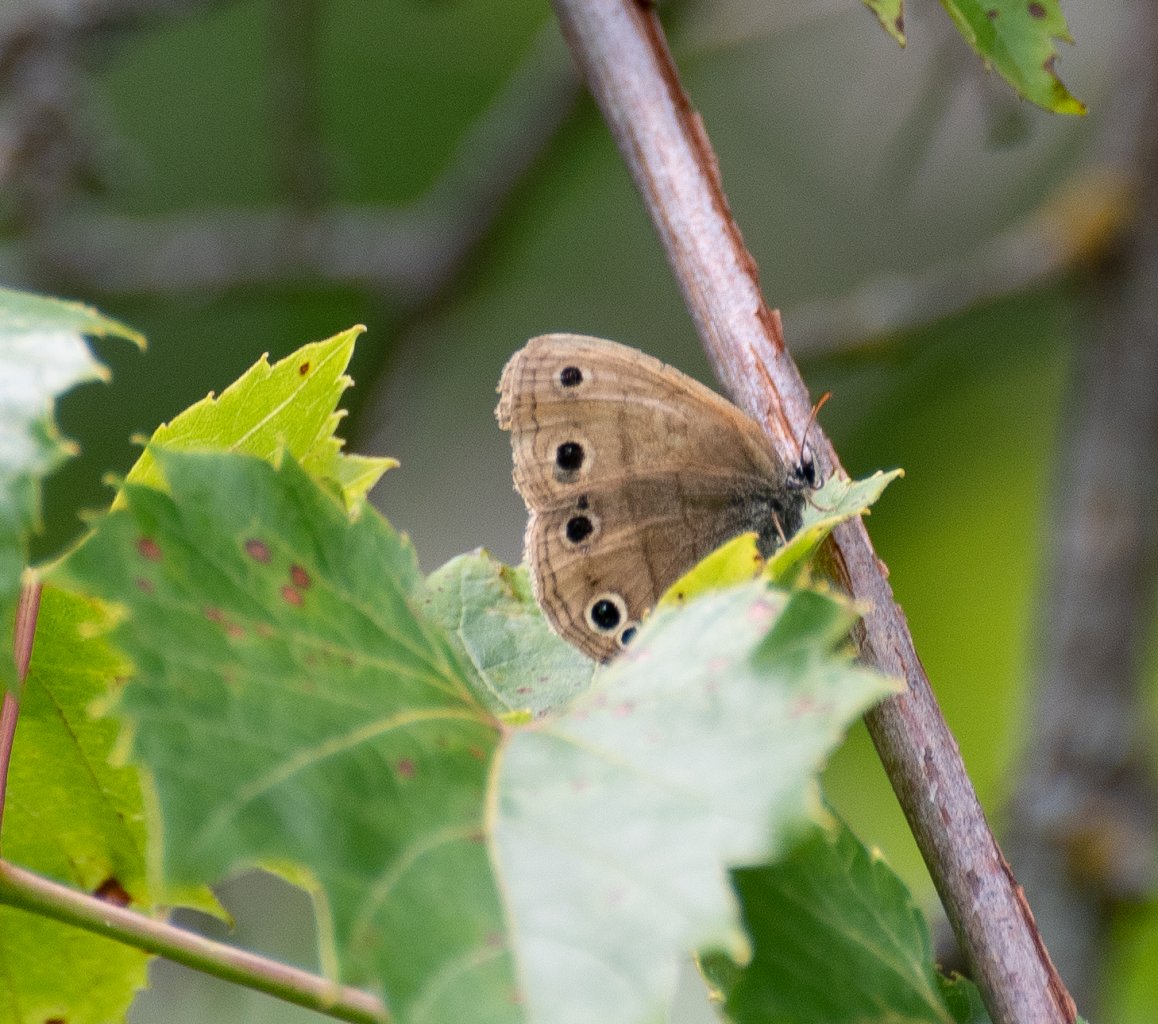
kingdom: Animalia
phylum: Arthropoda
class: Insecta
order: Lepidoptera
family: Nymphalidae
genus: Euptychia
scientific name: Euptychia cymela
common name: Little Wood Satyr
